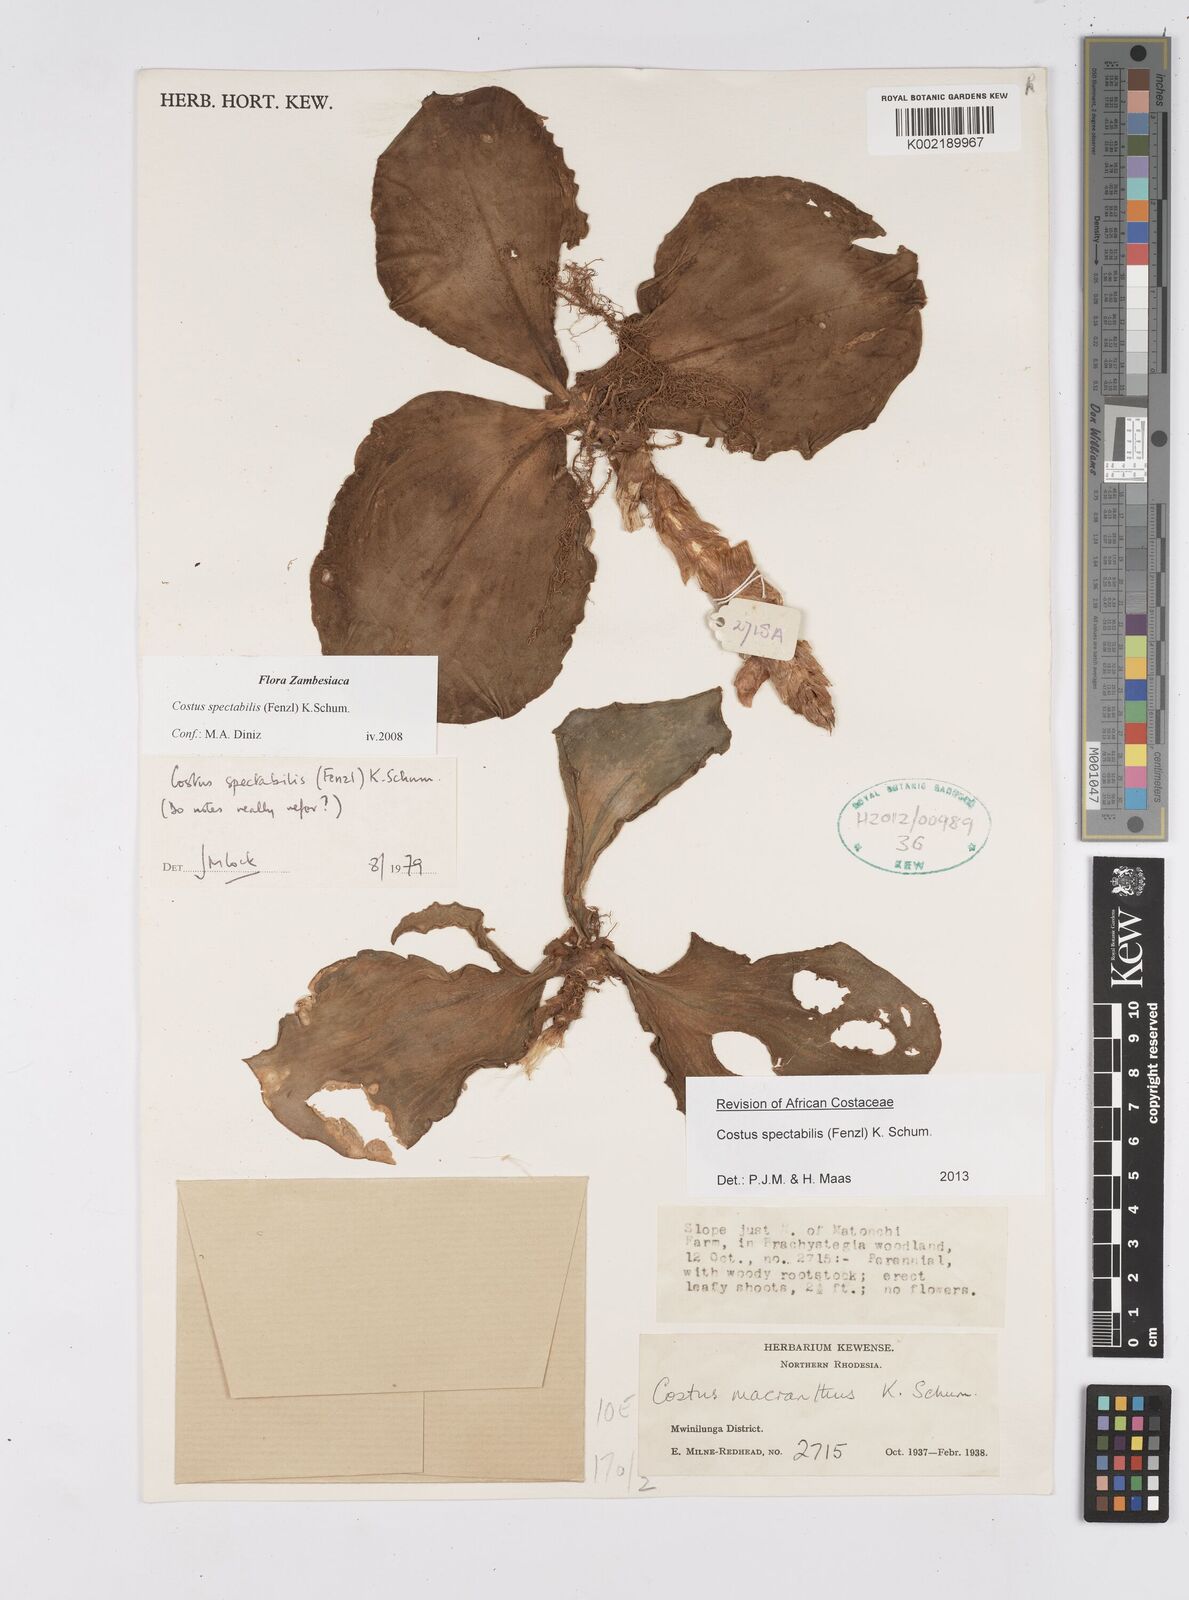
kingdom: Plantae
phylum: Tracheophyta
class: Liliopsida
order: Zingiberales
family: Costaceae
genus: Costus
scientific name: Costus spectabilis
